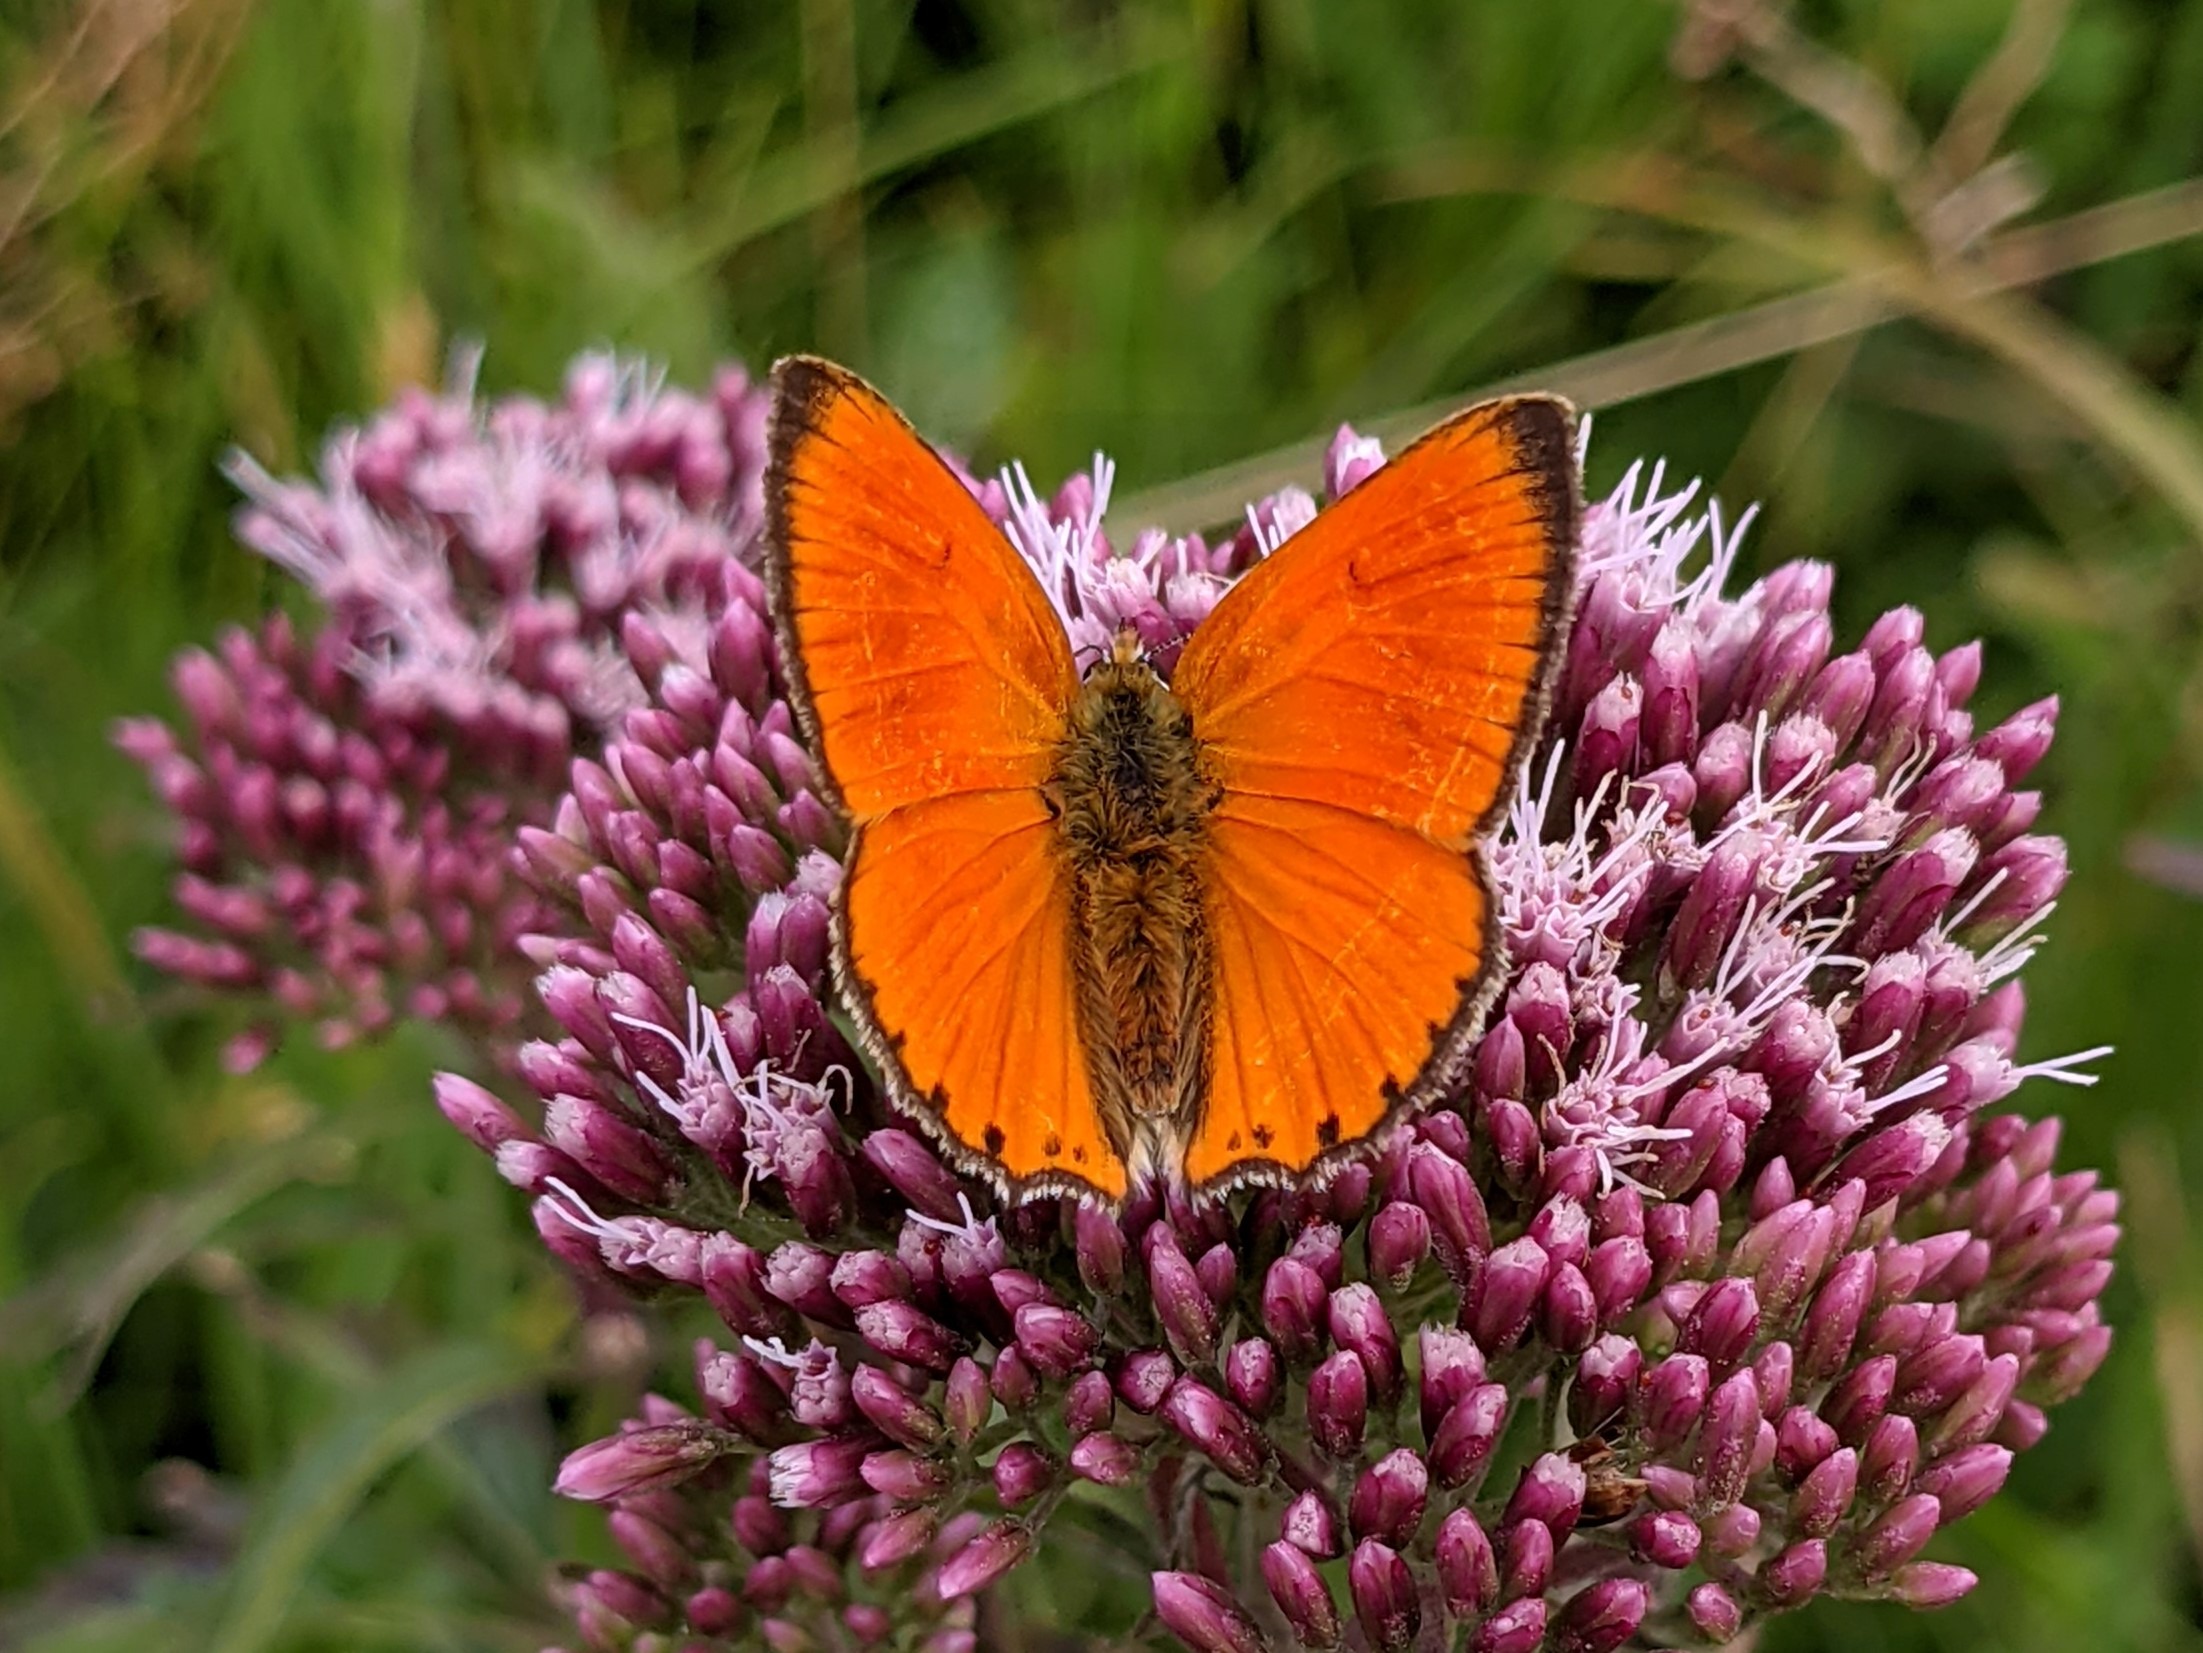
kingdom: Animalia
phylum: Arthropoda
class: Insecta
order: Lepidoptera
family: Lycaenidae
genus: Lycaena
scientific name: Lycaena virgaureae
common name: Dukatsommerfugl
